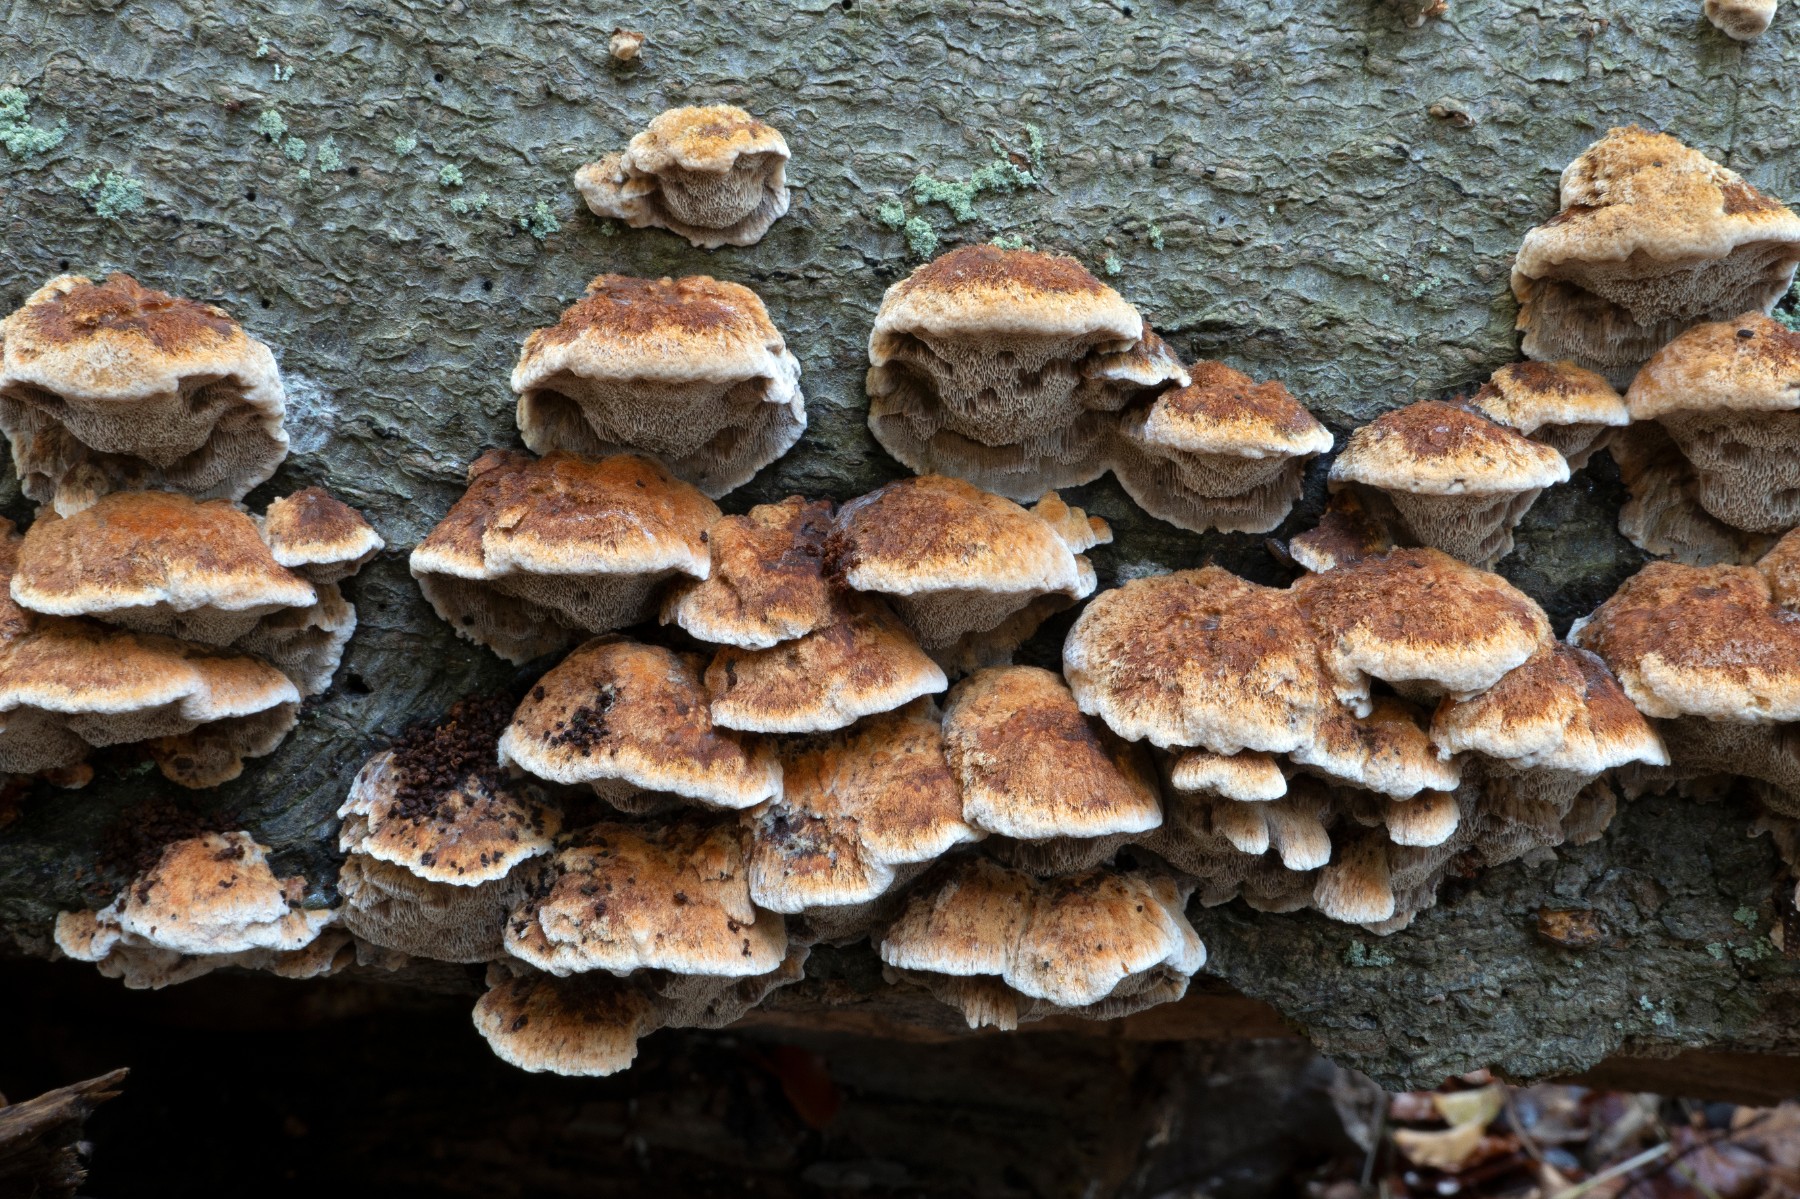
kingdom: Fungi
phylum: Basidiomycota
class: Agaricomycetes
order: Hymenochaetales
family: Hymenochaetaceae
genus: Mensularia
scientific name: Mensularia nodulosa
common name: bøge-spejlporesvamp
